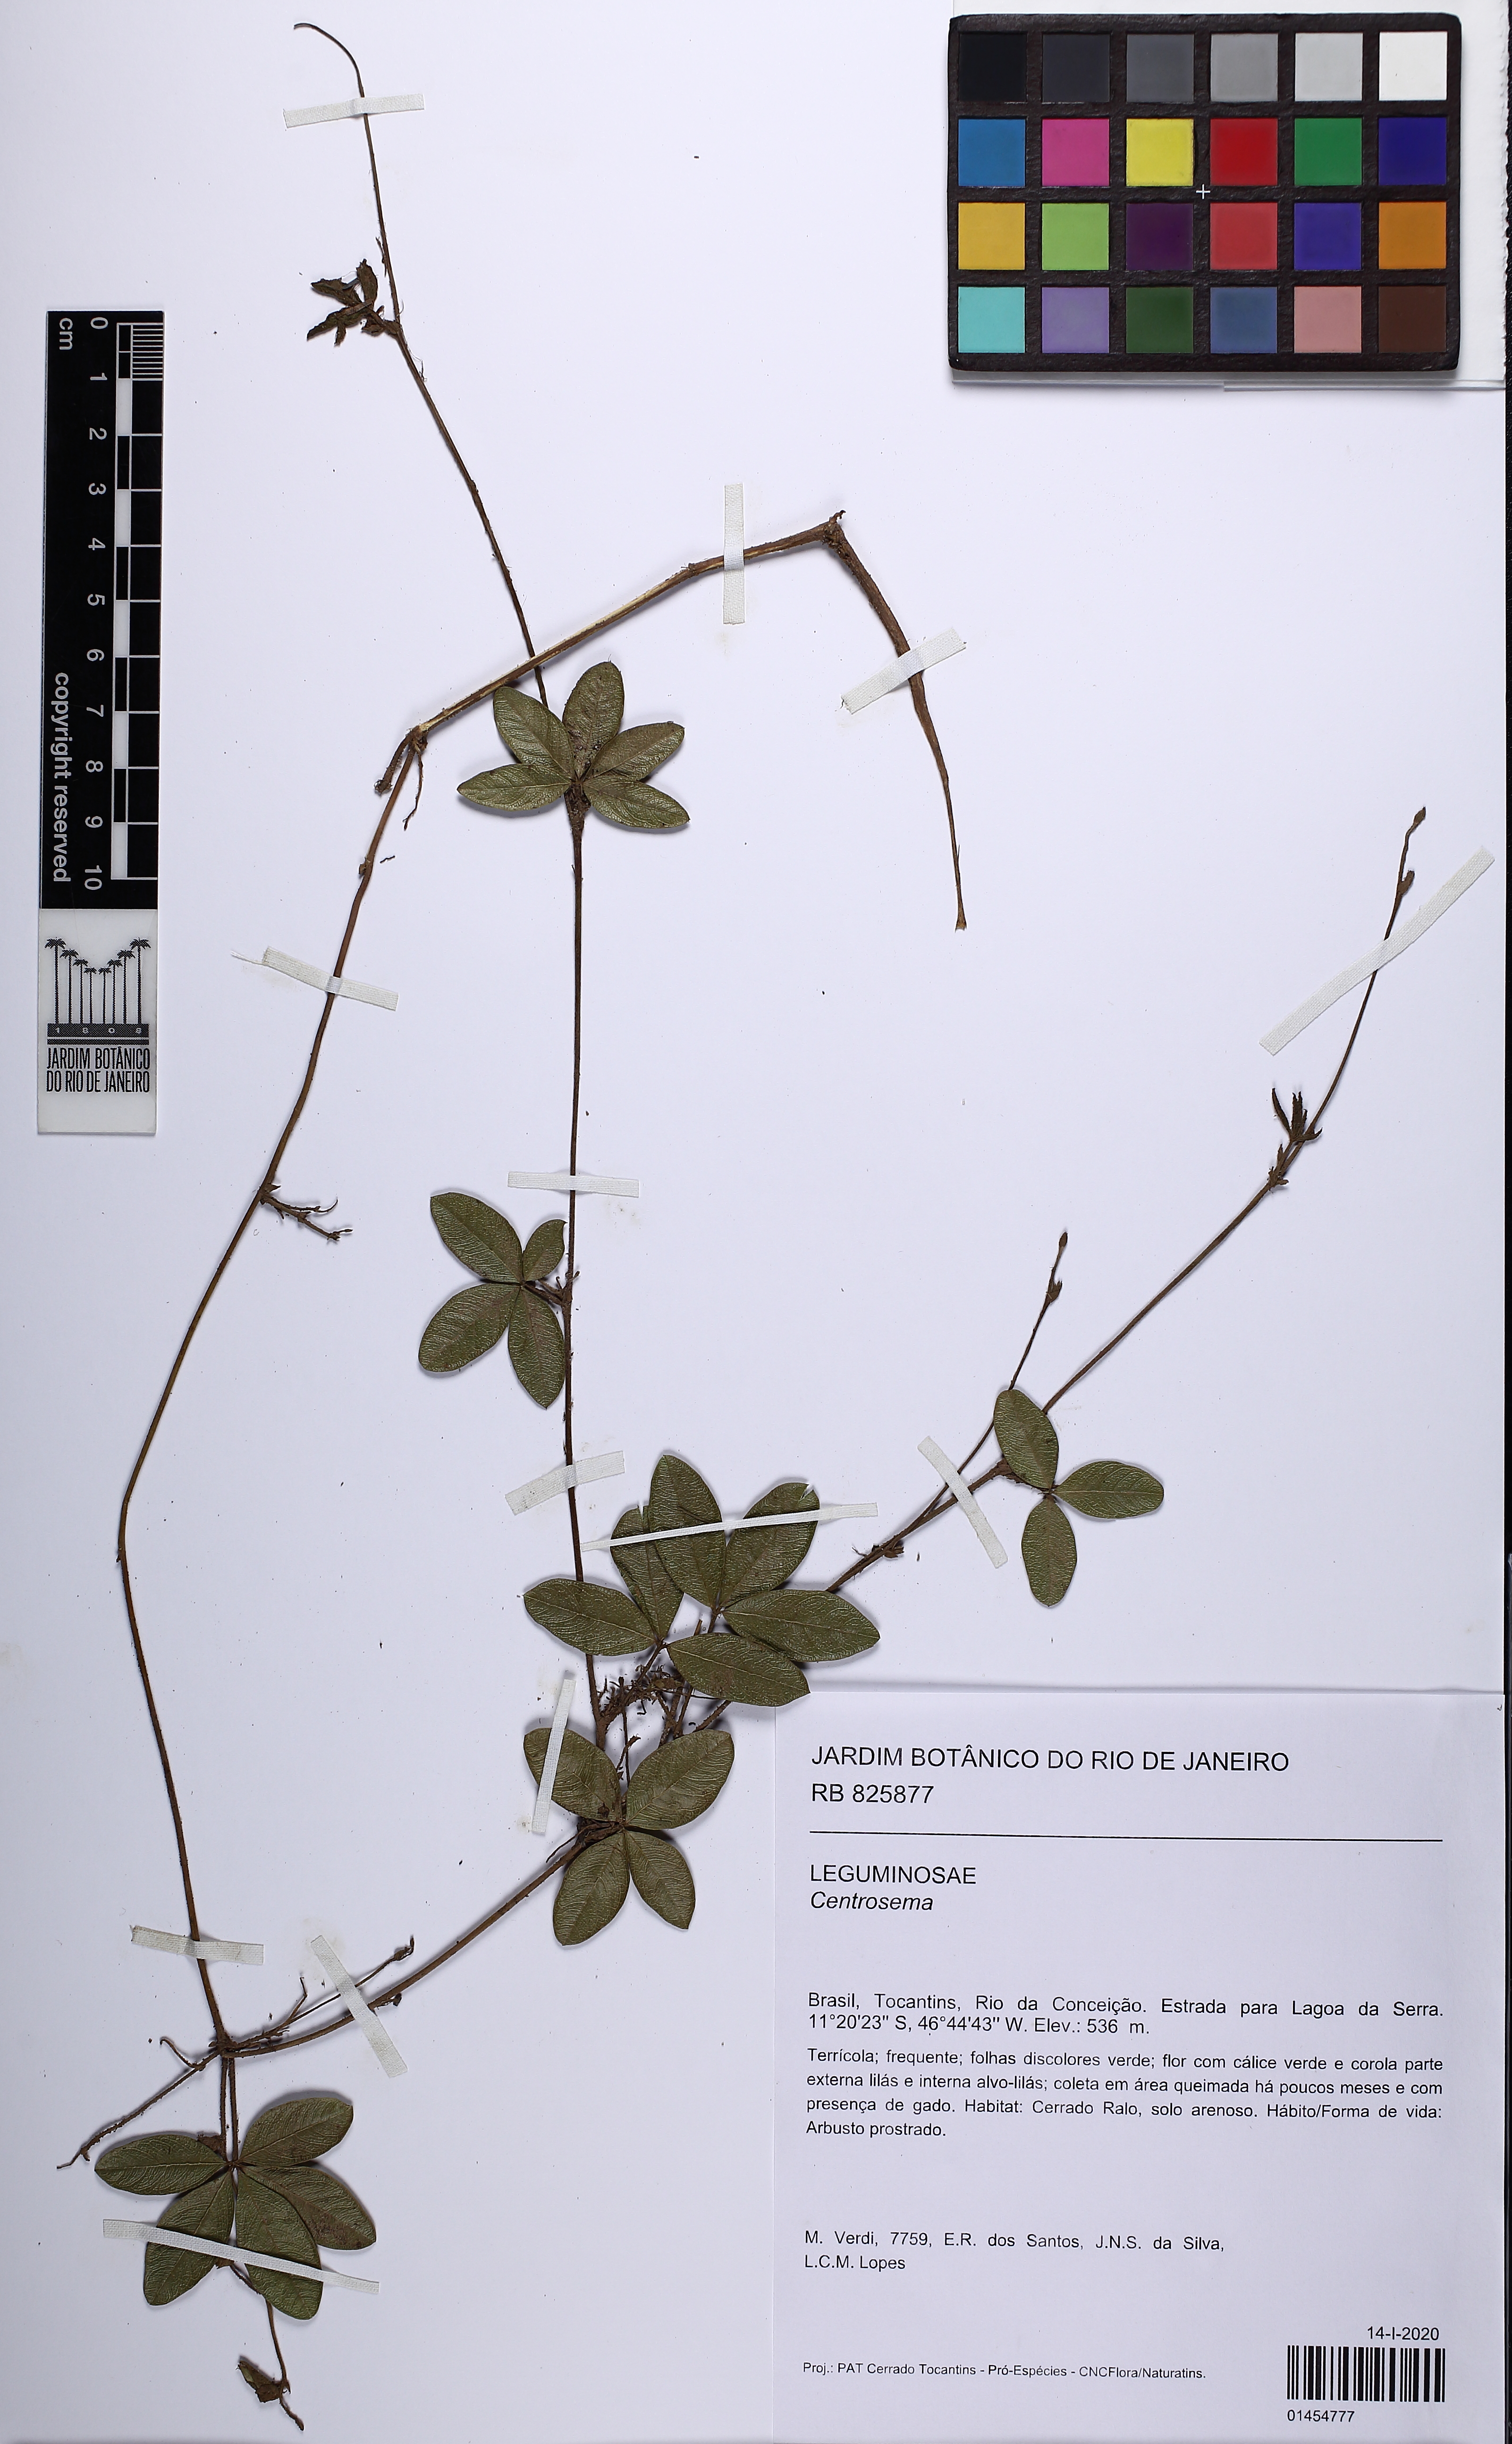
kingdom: Plantae
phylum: Tracheophyta
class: Magnoliopsida
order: Fabales
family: Fabaceae
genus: Centrosema
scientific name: Centrosema
